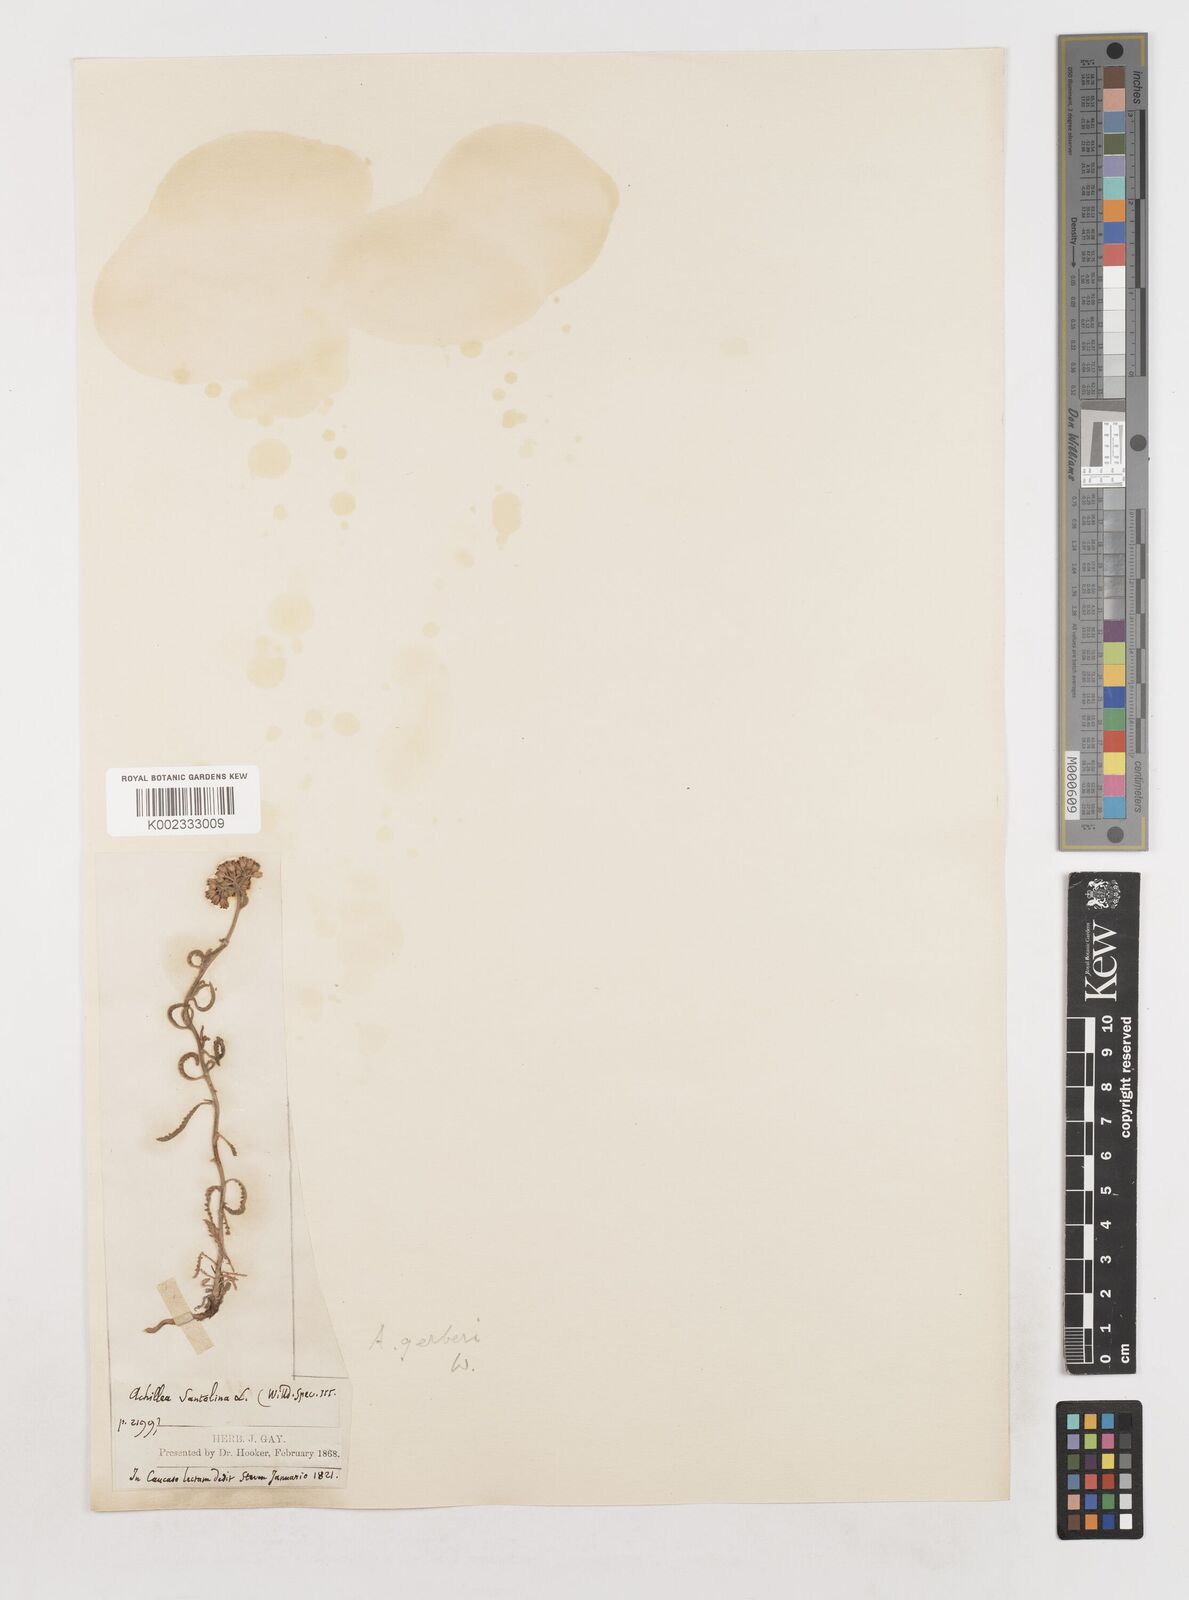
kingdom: Plantae
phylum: Tracheophyta
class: Magnoliopsida
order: Asterales
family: Asteraceae
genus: Achillea
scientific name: Achillea nobilis
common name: Noble yarrow
